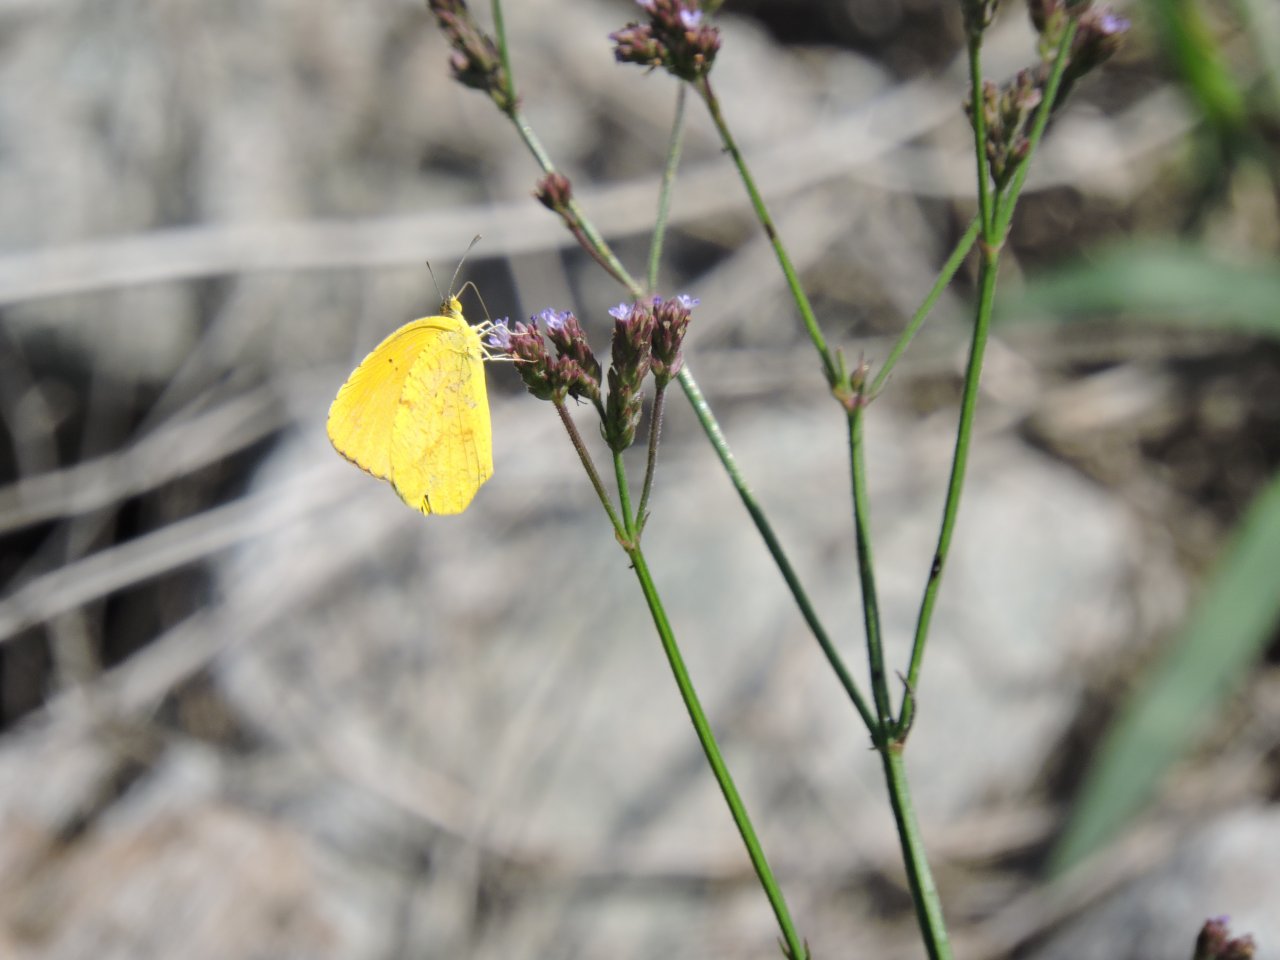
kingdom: Animalia
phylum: Arthropoda
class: Insecta
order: Lepidoptera
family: Pieridae
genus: Abaeis
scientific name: Abaeis nicippe
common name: Sleepy Orange
